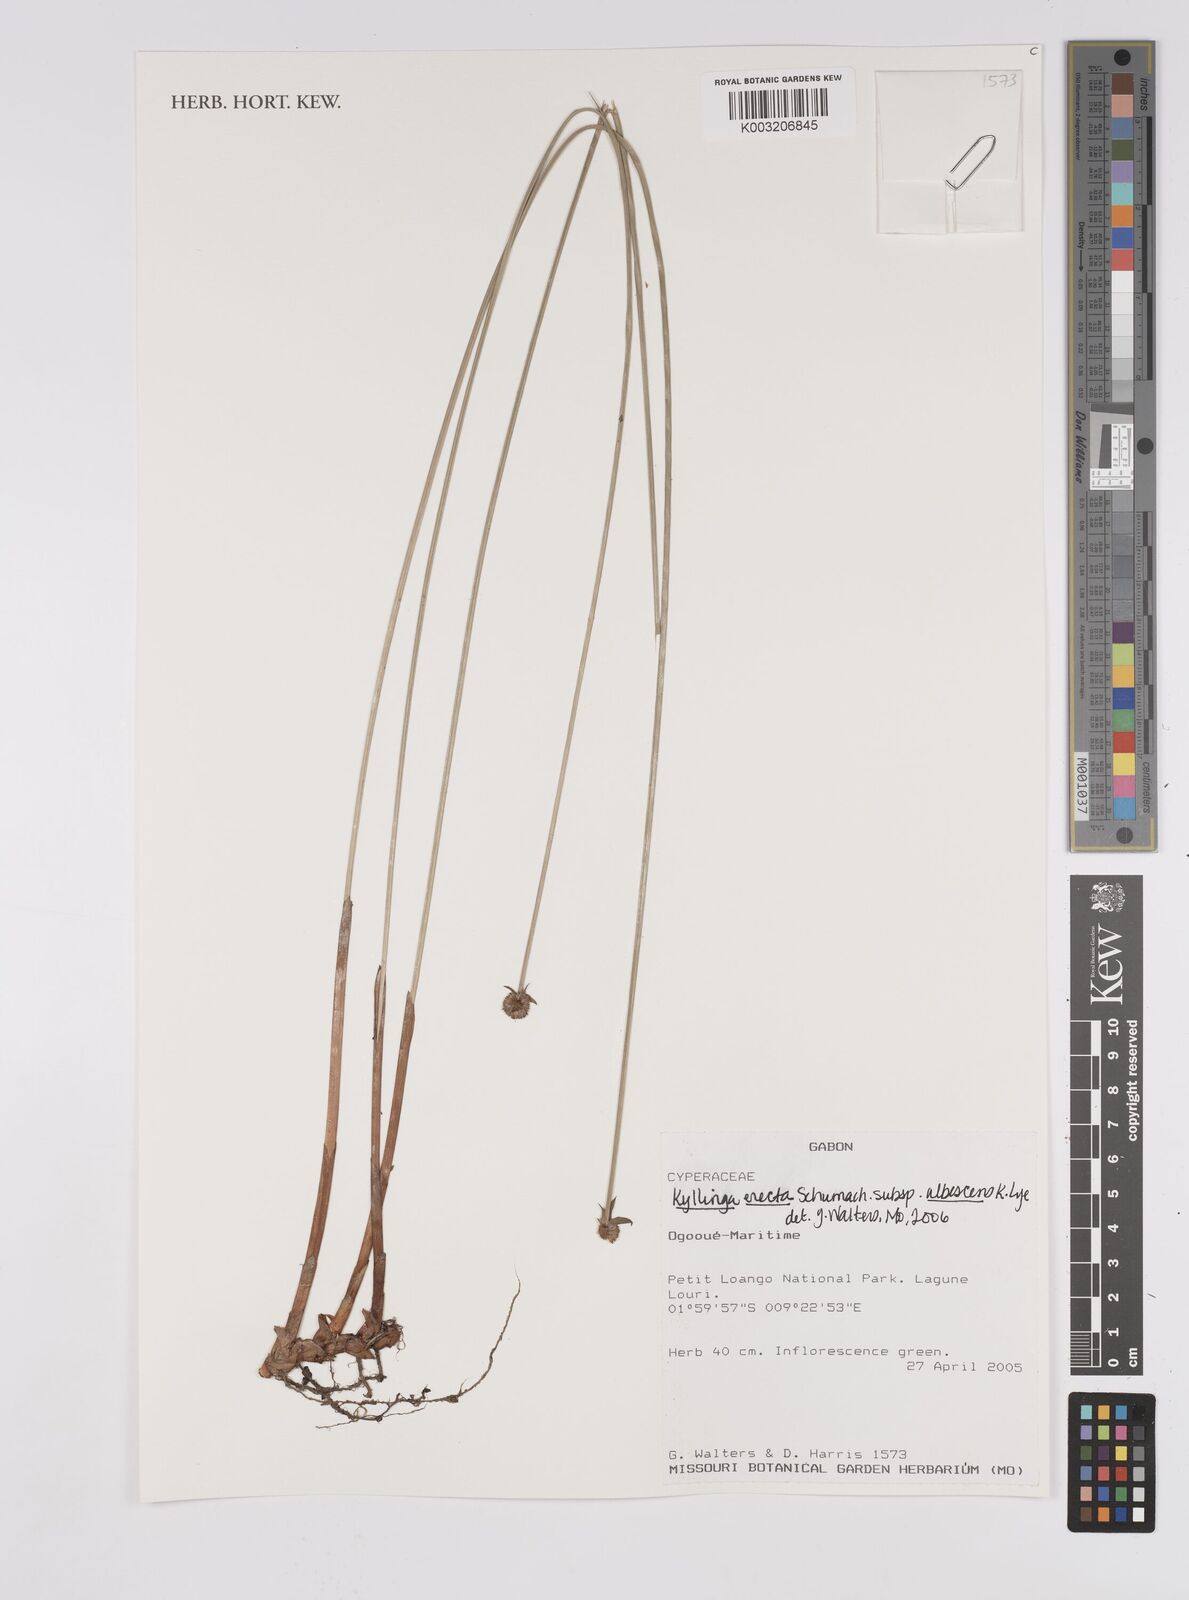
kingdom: Plantae
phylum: Tracheophyta
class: Liliopsida
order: Poales
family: Cyperaceae
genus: Cyperus
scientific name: Cyperus erectus
